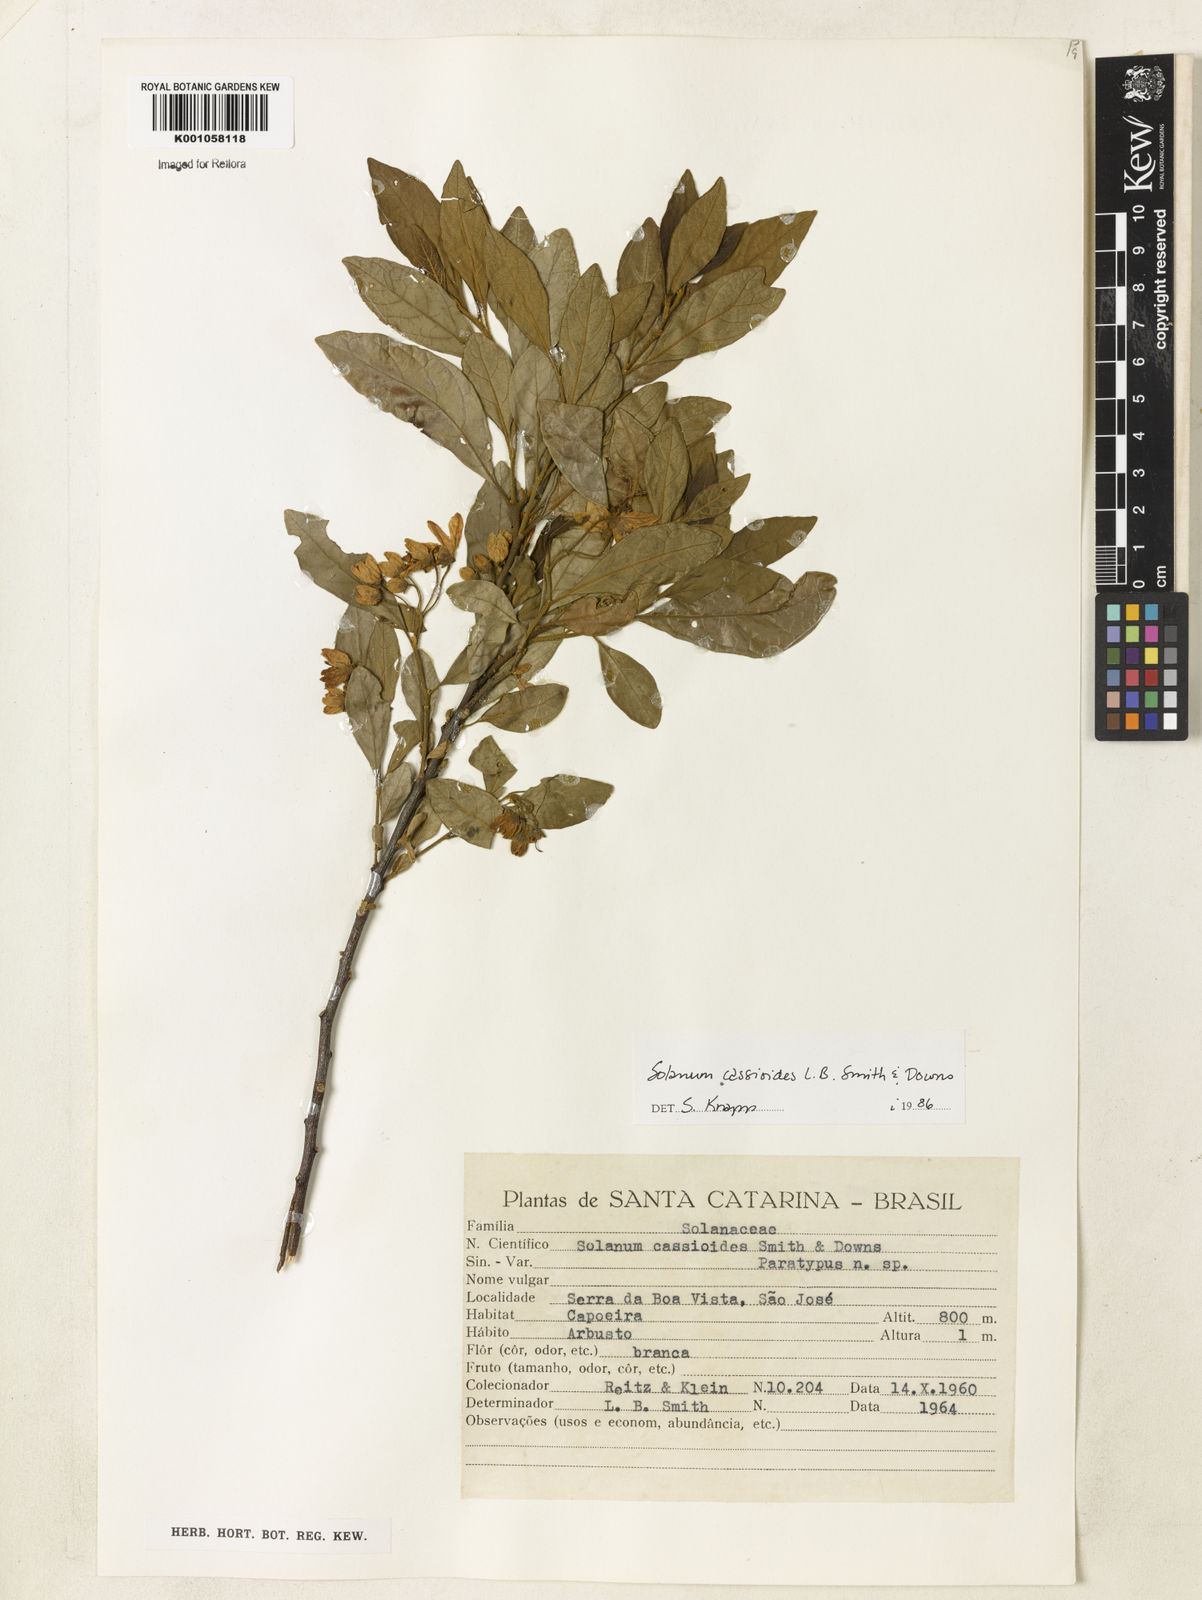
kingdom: Plantae
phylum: Tracheophyta
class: Magnoliopsida
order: Solanales
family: Solanaceae
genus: Solanum
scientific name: Solanum cassioides
